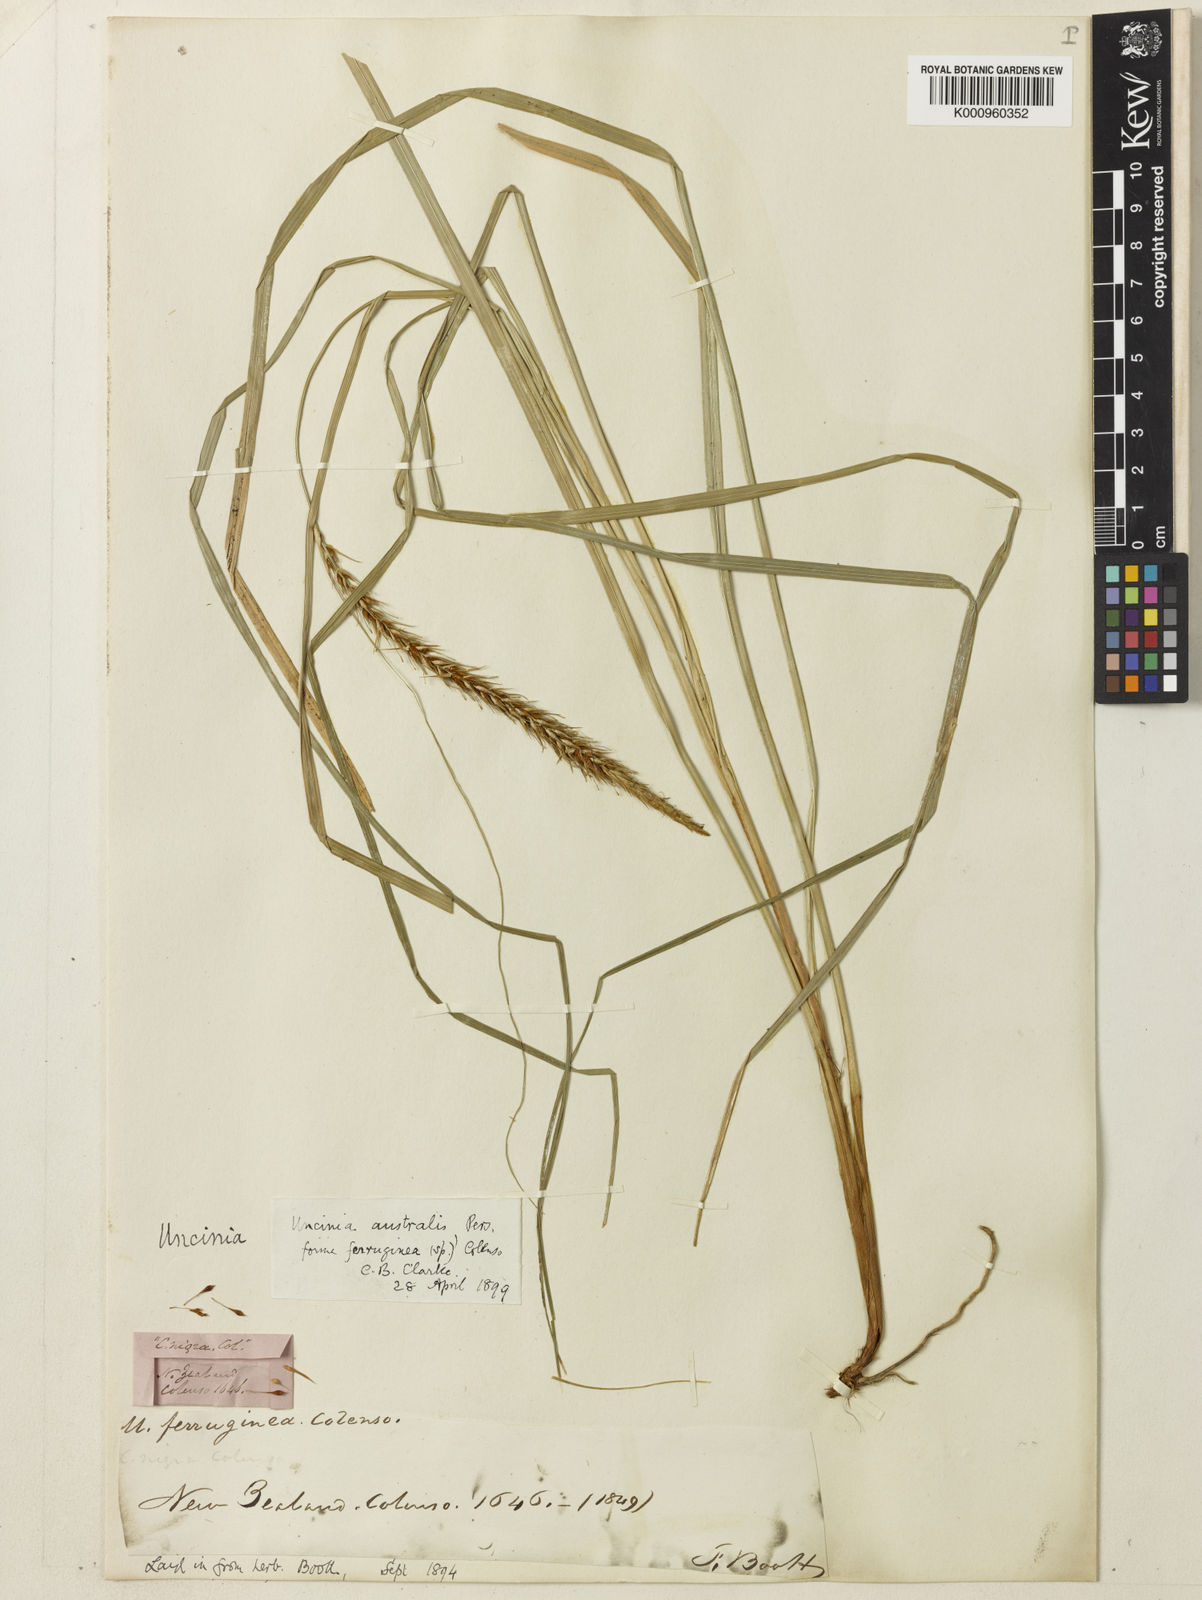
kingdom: Fungi
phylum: Ascomycota
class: Leotiomycetes
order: Helotiales
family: Hamatocanthoscyphaceae
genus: Uncinia
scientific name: Uncinia
